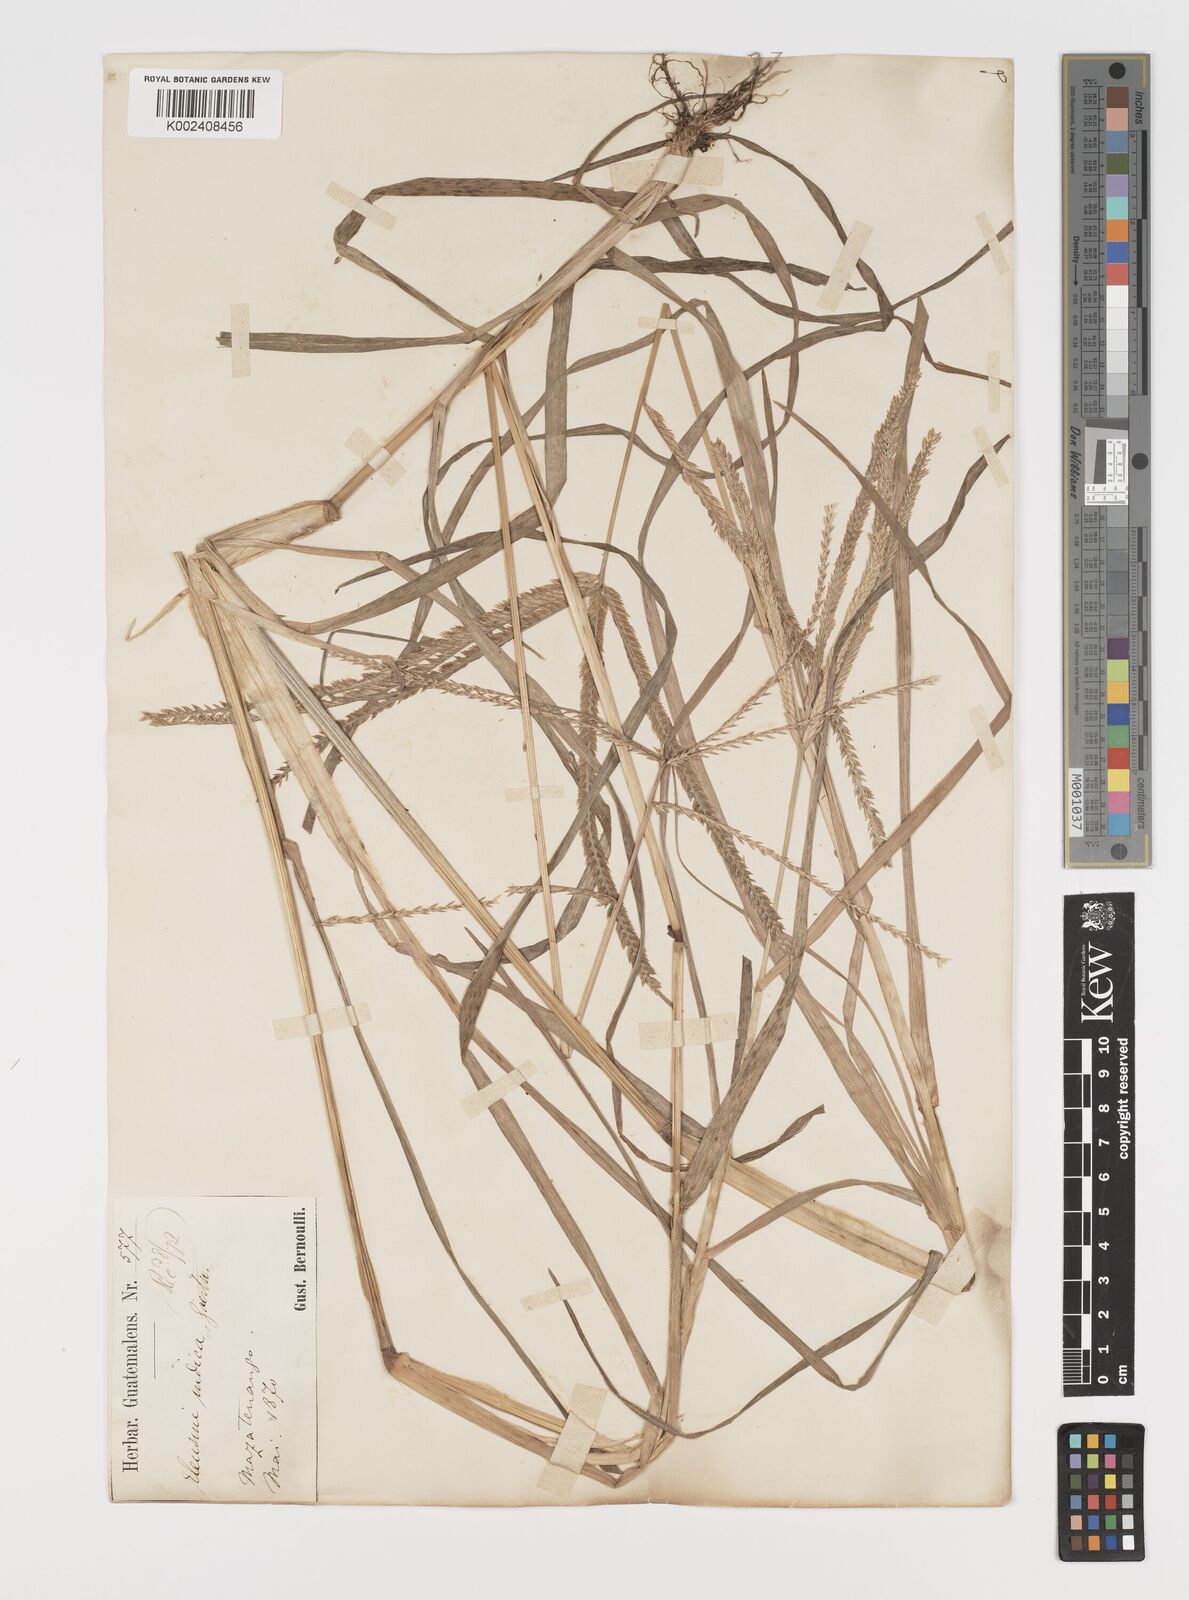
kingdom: Plantae
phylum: Tracheophyta
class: Liliopsida
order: Poales
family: Poaceae
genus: Eleusine
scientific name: Eleusine indica
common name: Yard-grass
